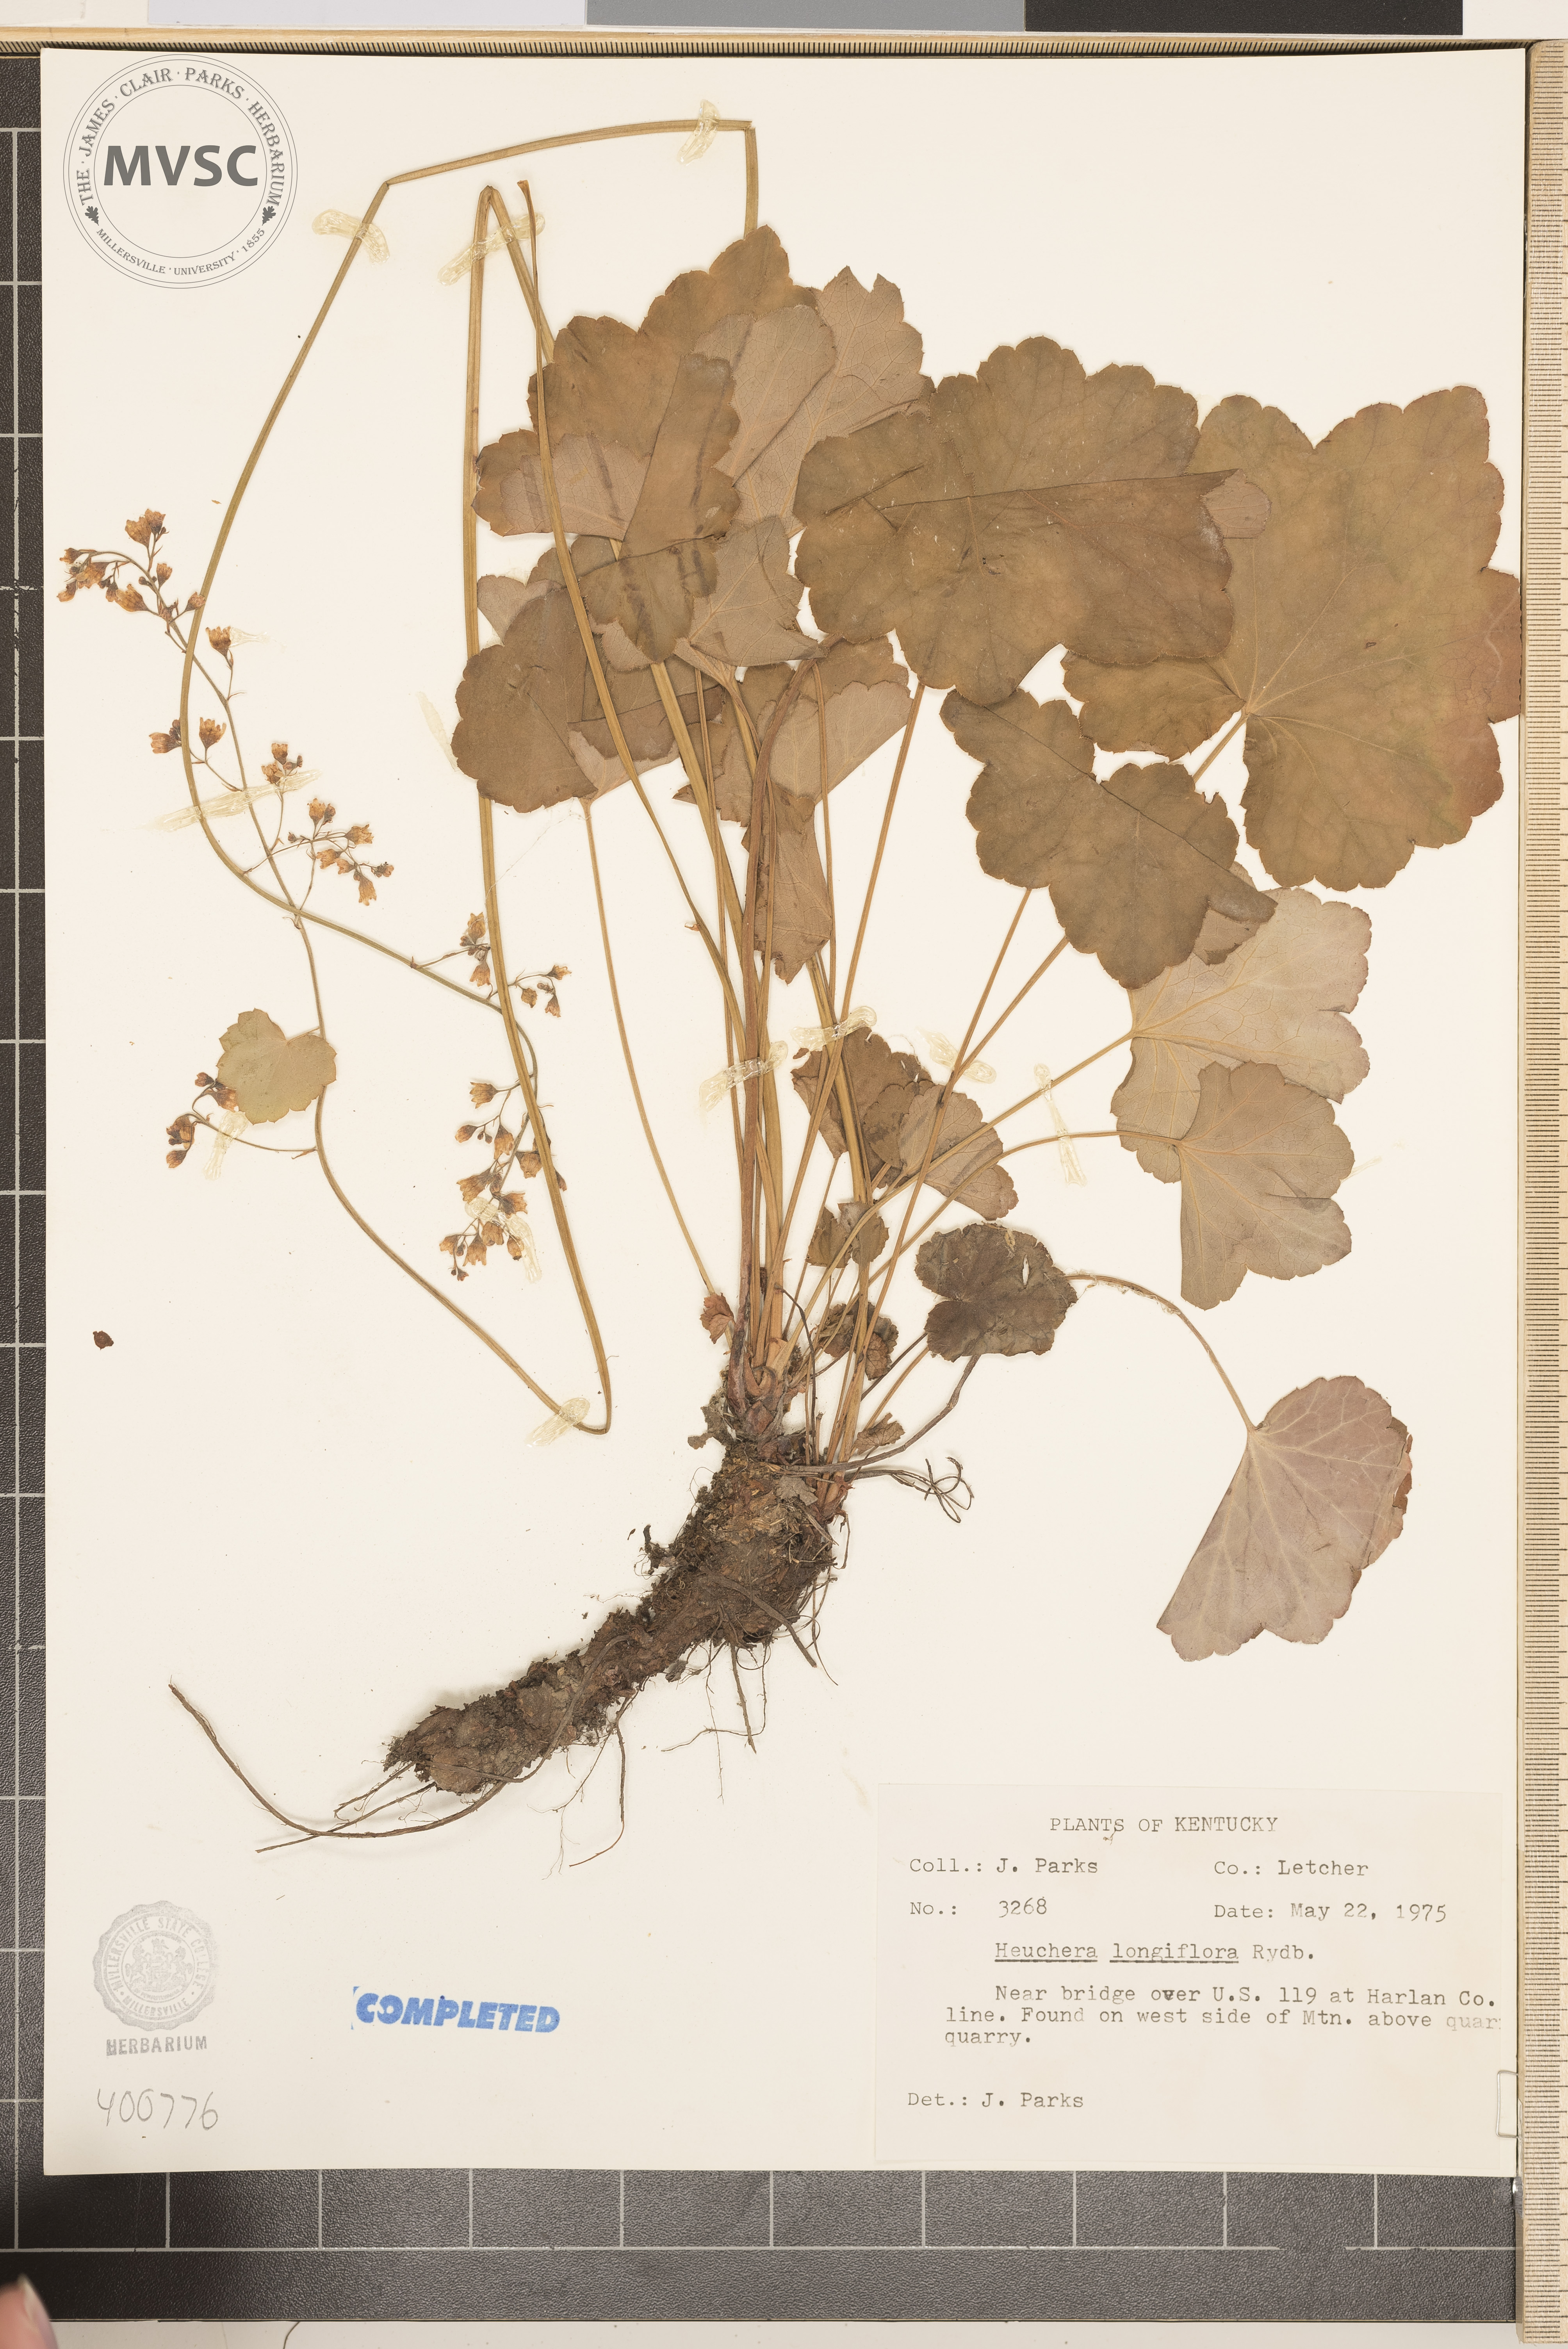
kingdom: Plantae
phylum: Tracheophyta
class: Magnoliopsida
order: Saxifragales
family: Saxifragaceae
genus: Heuchera
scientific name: Heuchera longiflora
